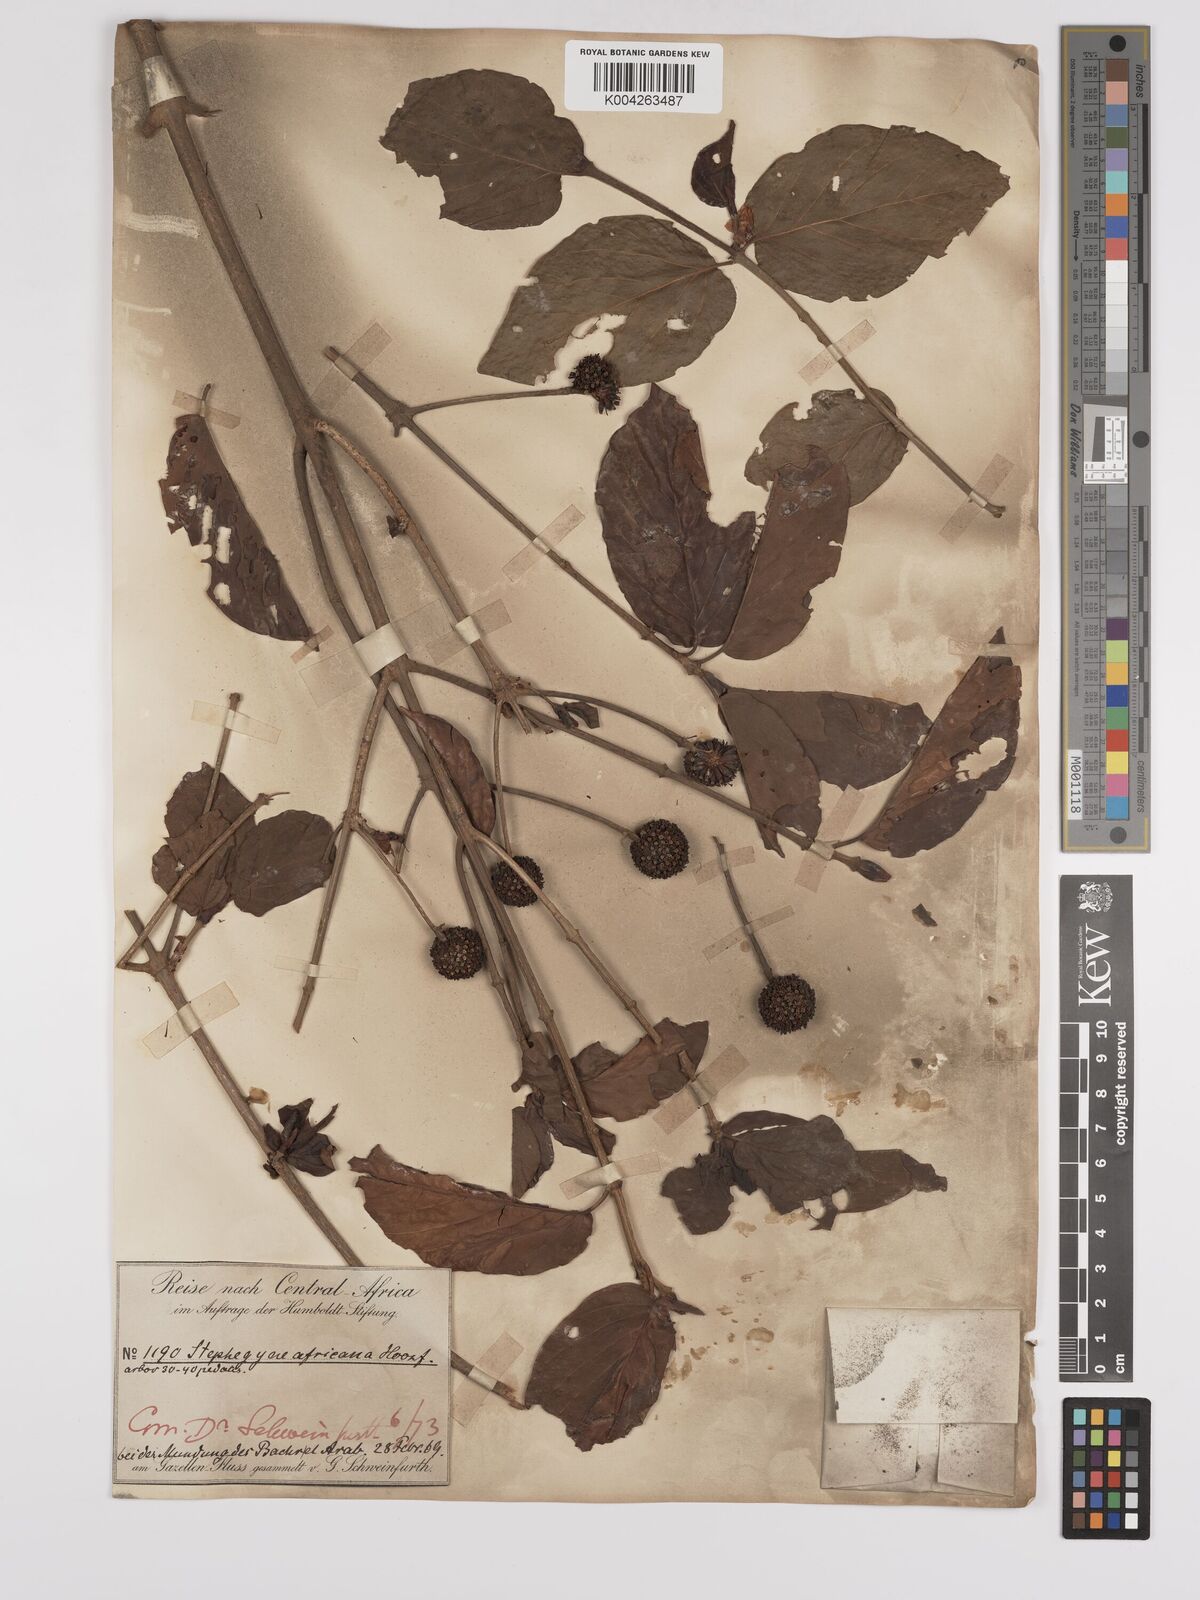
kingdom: Plantae
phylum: Tracheophyta
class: Magnoliopsida
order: Gentianales
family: Rubiaceae
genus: Mitragyna
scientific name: Mitragyna inermis
